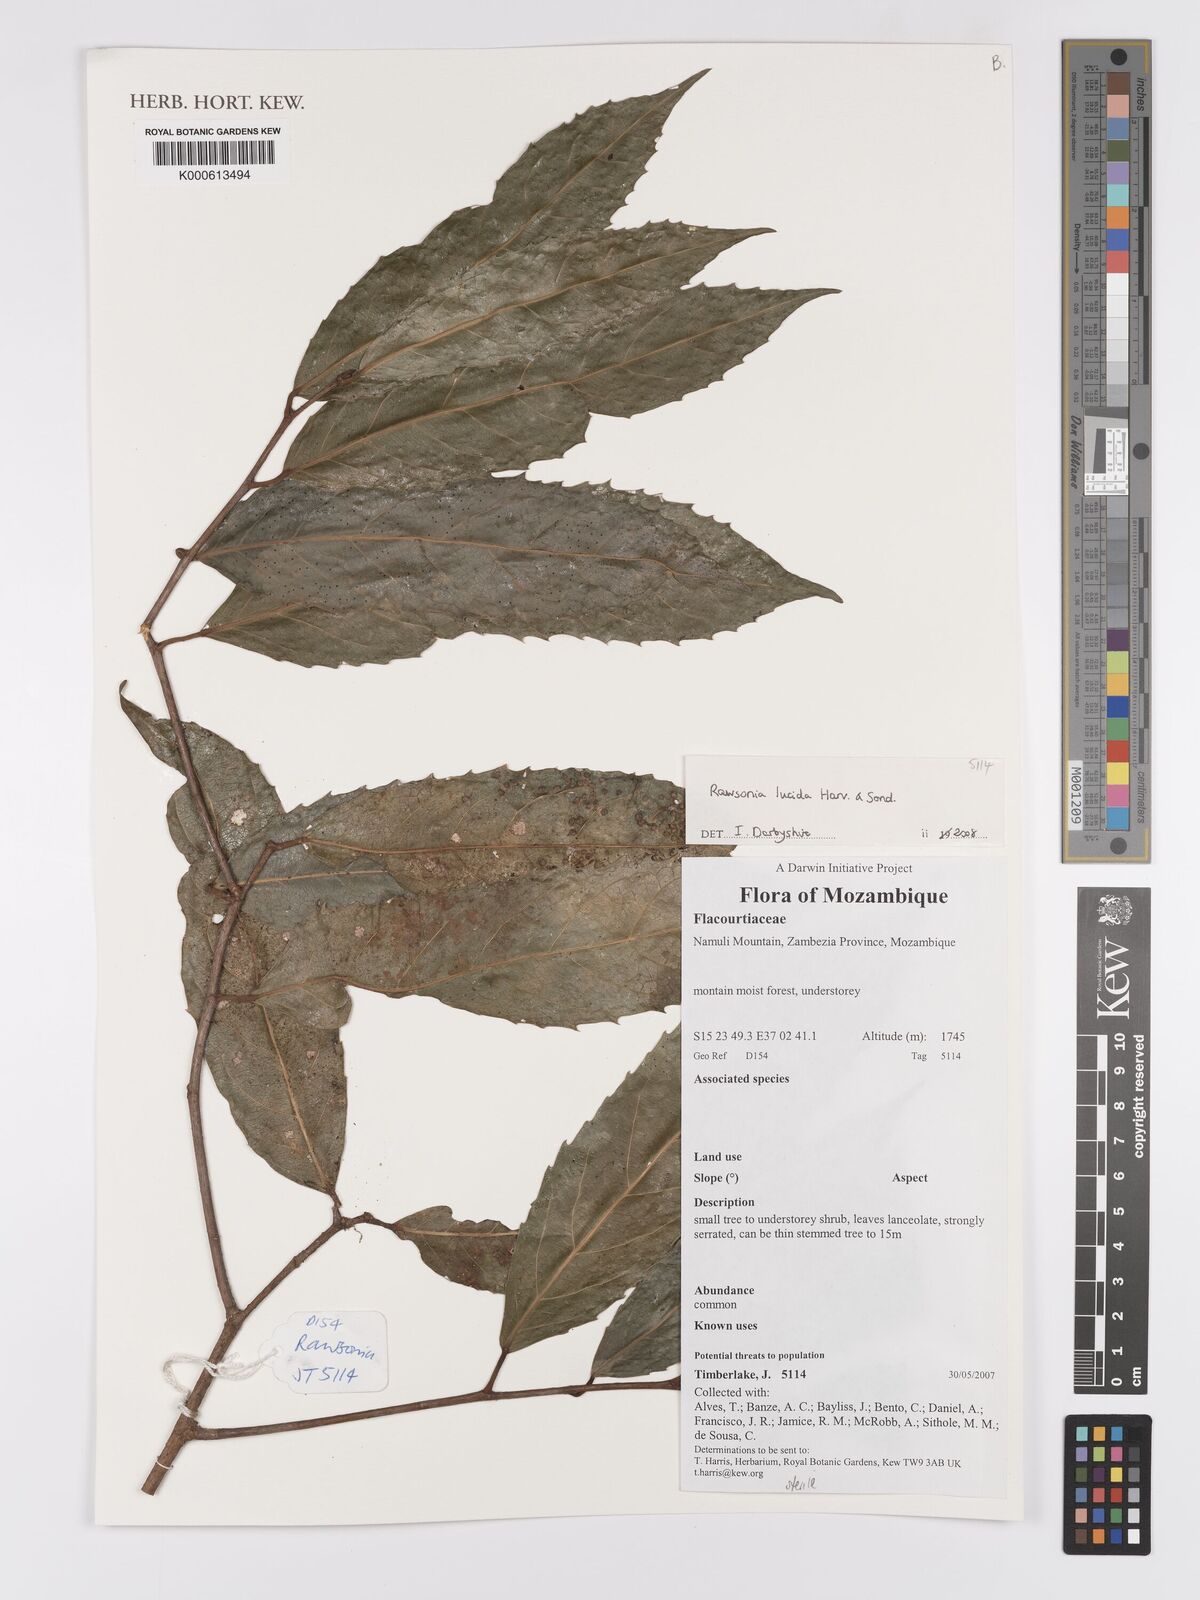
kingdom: Plantae
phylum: Tracheophyta
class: Magnoliopsida
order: Malpighiales
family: Achariaceae
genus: Rawsonia
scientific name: Rawsonia lucida
